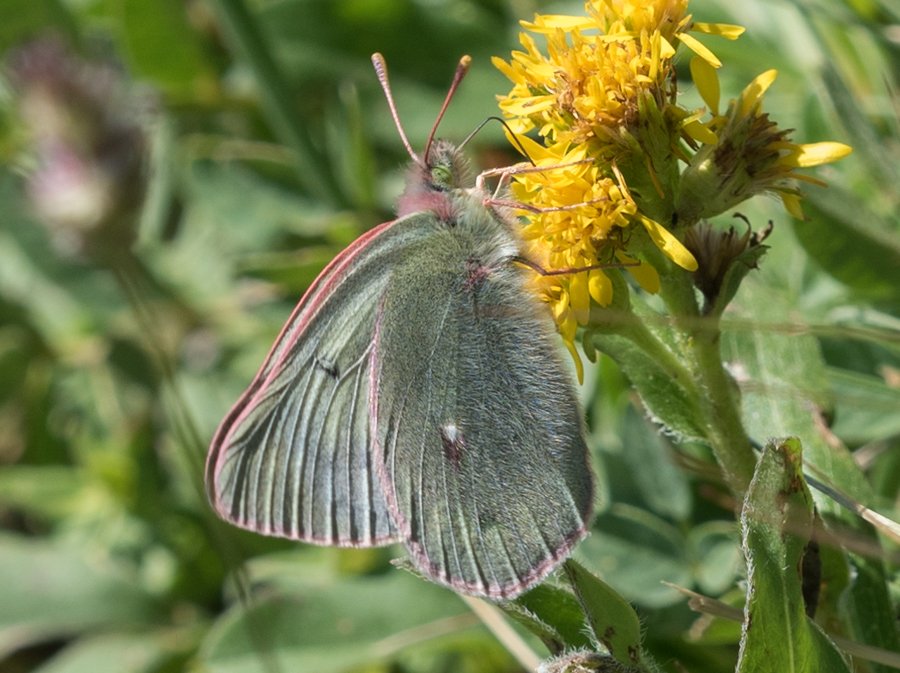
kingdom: Animalia
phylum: Arthropoda
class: Insecta
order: Lepidoptera
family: Pieridae
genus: Colias
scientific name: Colias nastes
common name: Labrador Sulphur
